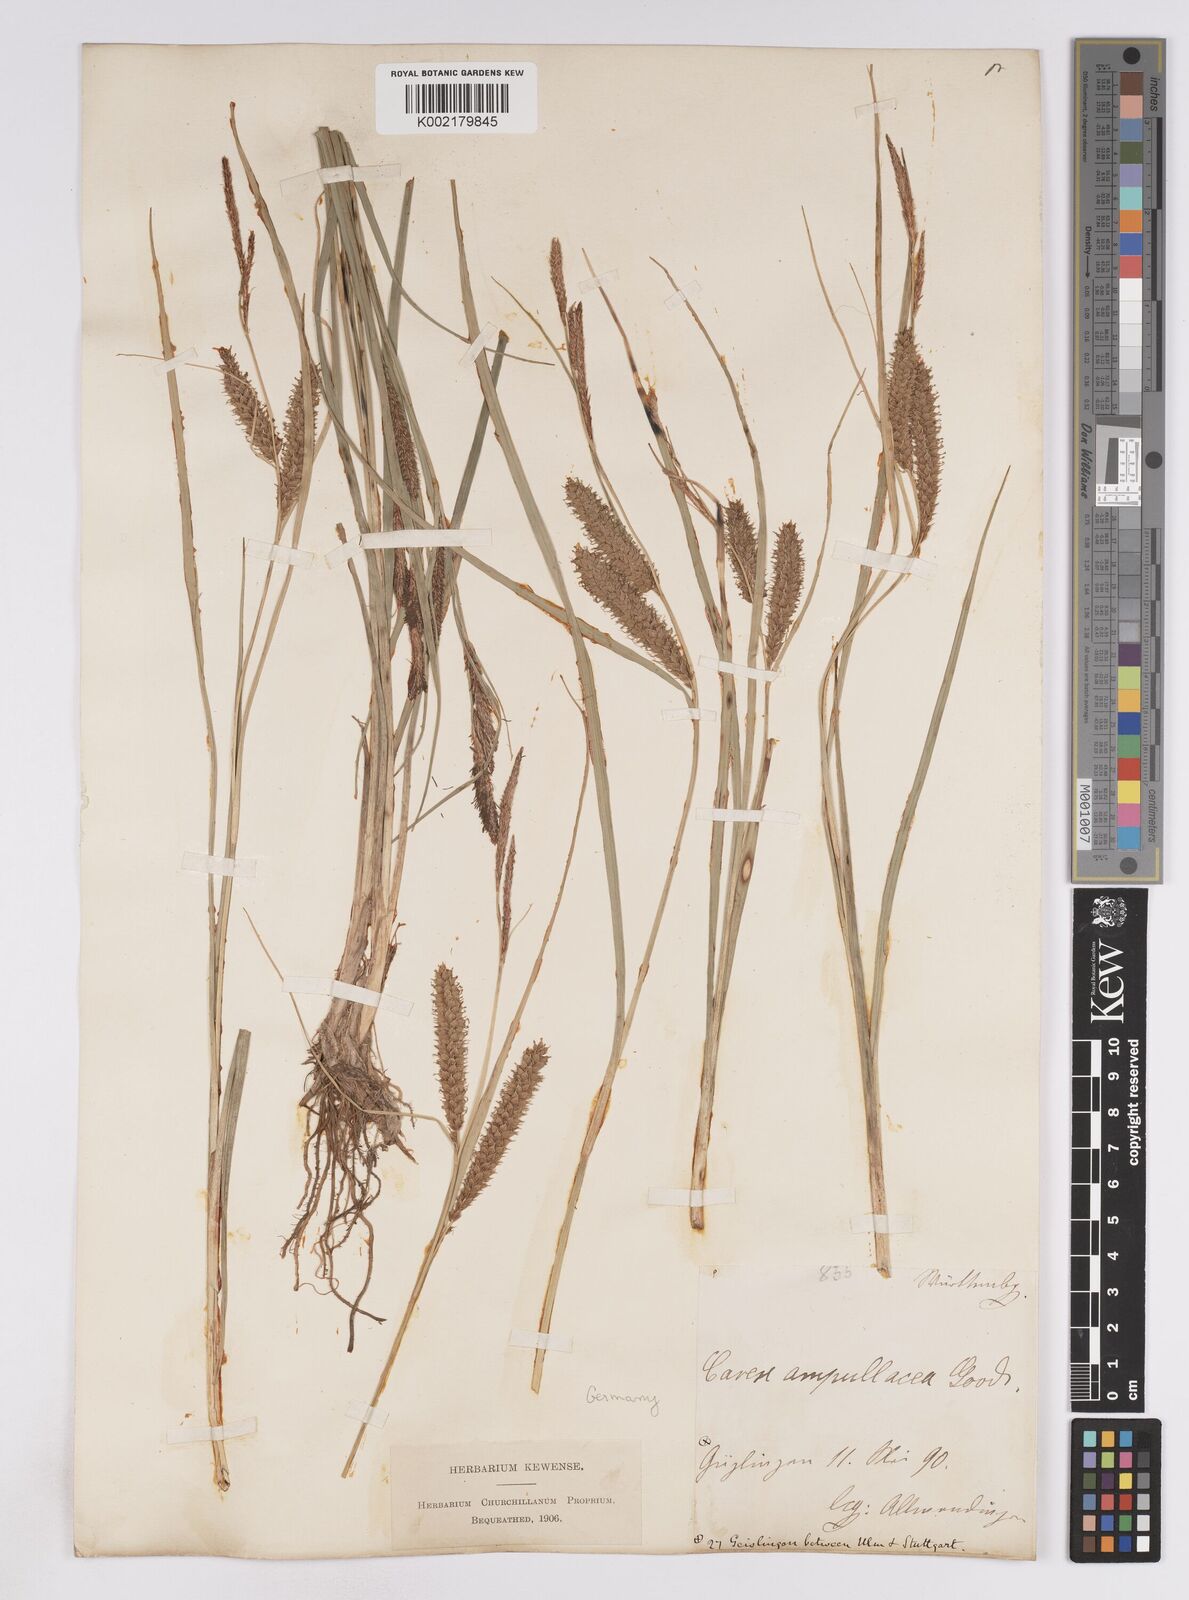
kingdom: Plantae
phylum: Tracheophyta
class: Liliopsida
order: Poales
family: Cyperaceae
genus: Carex
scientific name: Carex rostrata
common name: Bottle sedge
